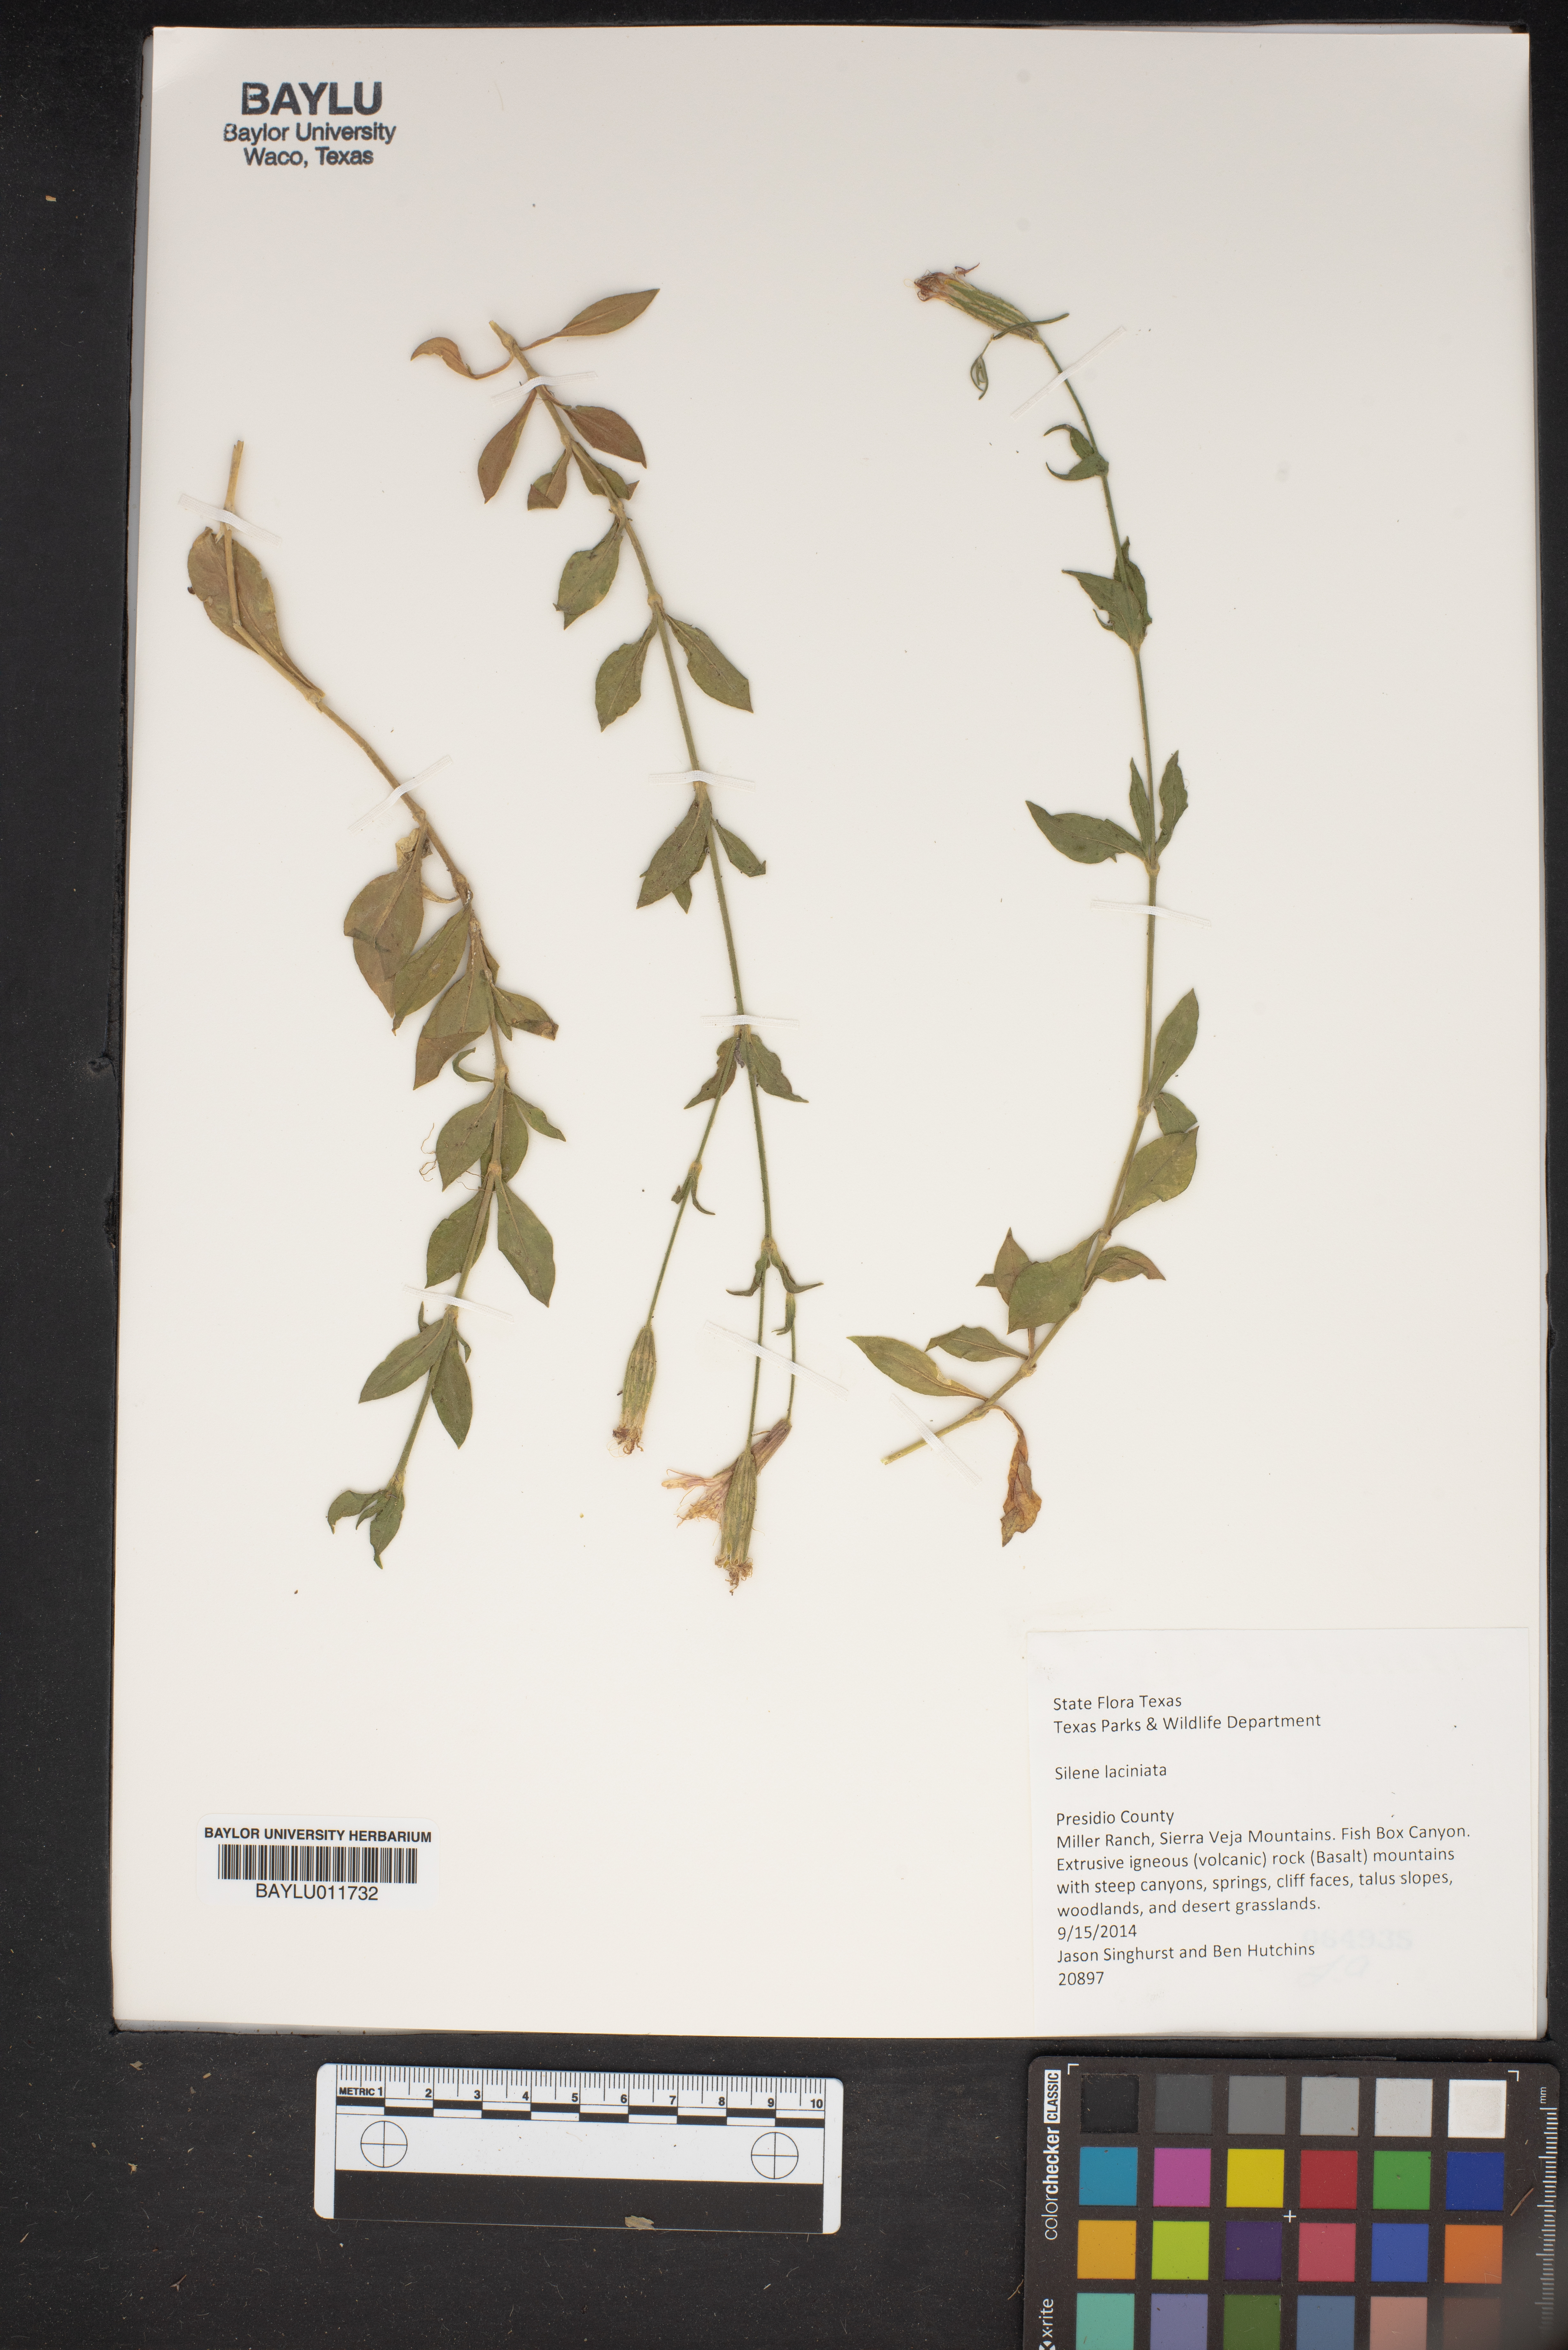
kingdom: Plantae
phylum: Tracheophyta
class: Magnoliopsida
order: Caryophyllales
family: Caryophyllaceae
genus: Silene
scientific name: Silene laciniata
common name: Indian-pink
